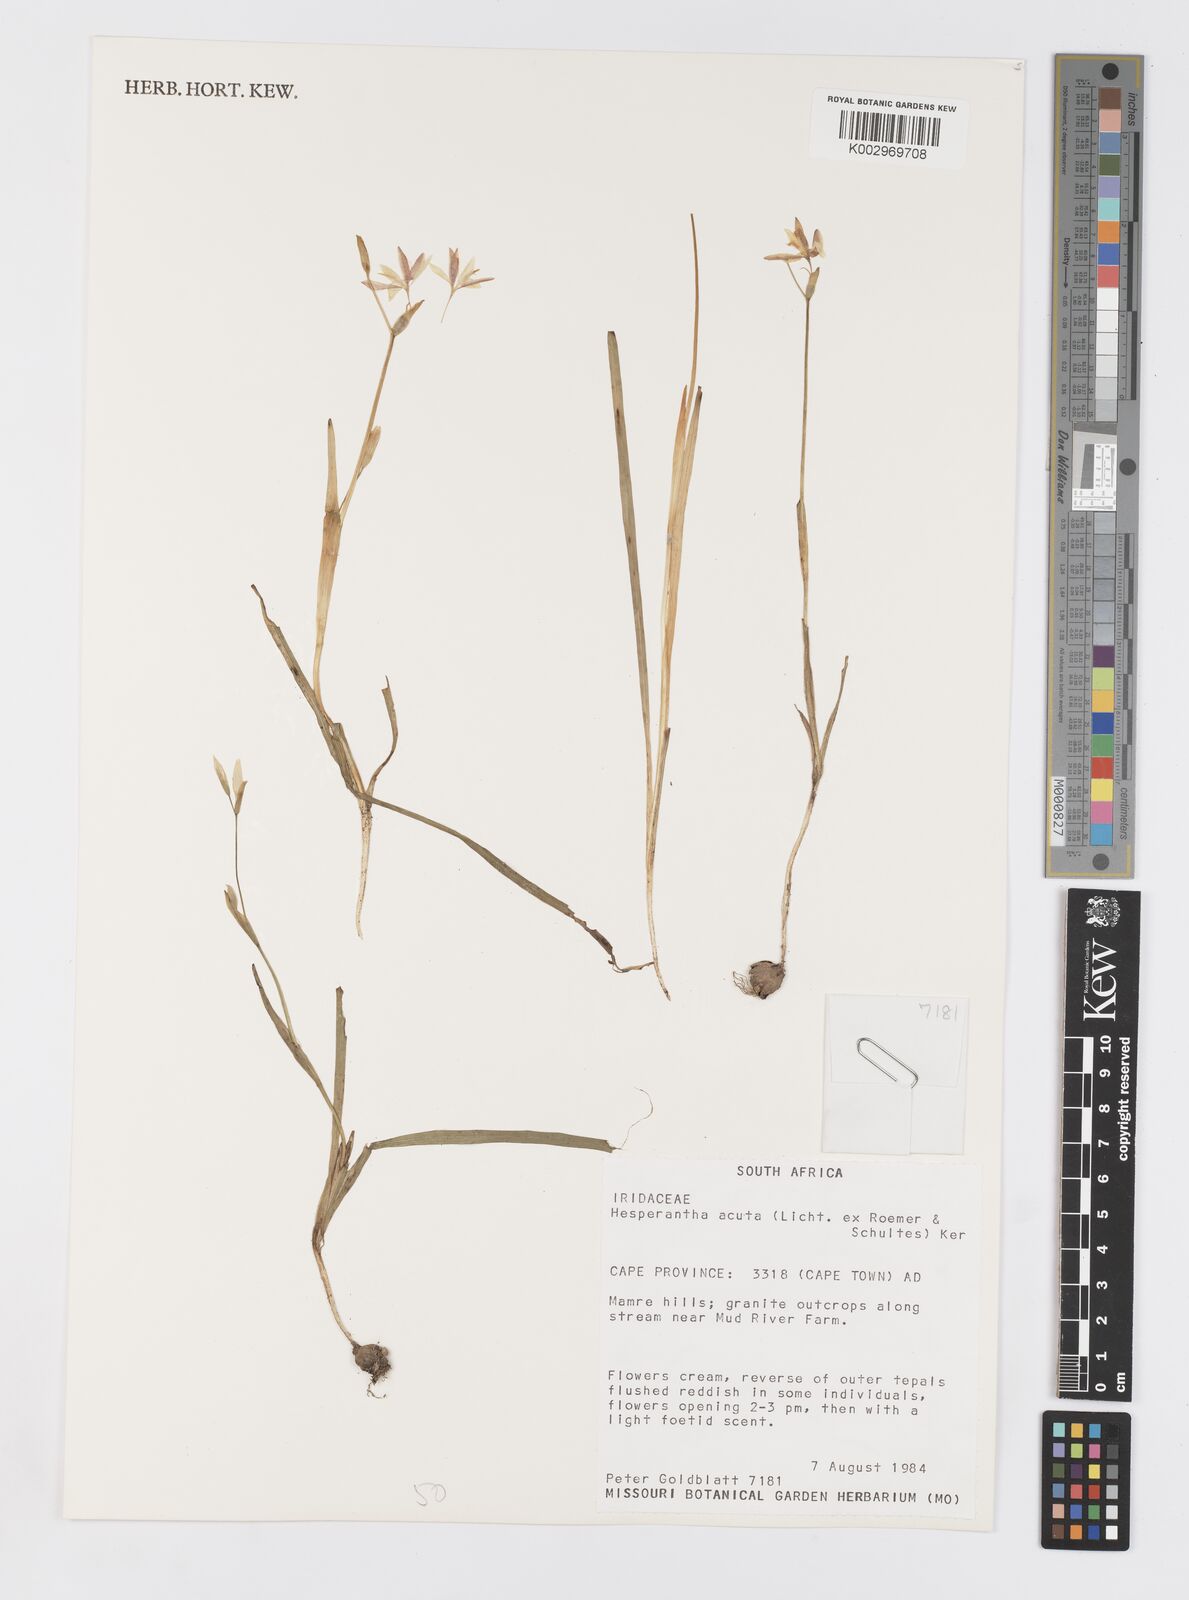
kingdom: Plantae
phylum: Tracheophyta
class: Liliopsida
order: Asparagales
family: Iridaceae
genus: Hesperantha
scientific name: Hesperantha acuta
